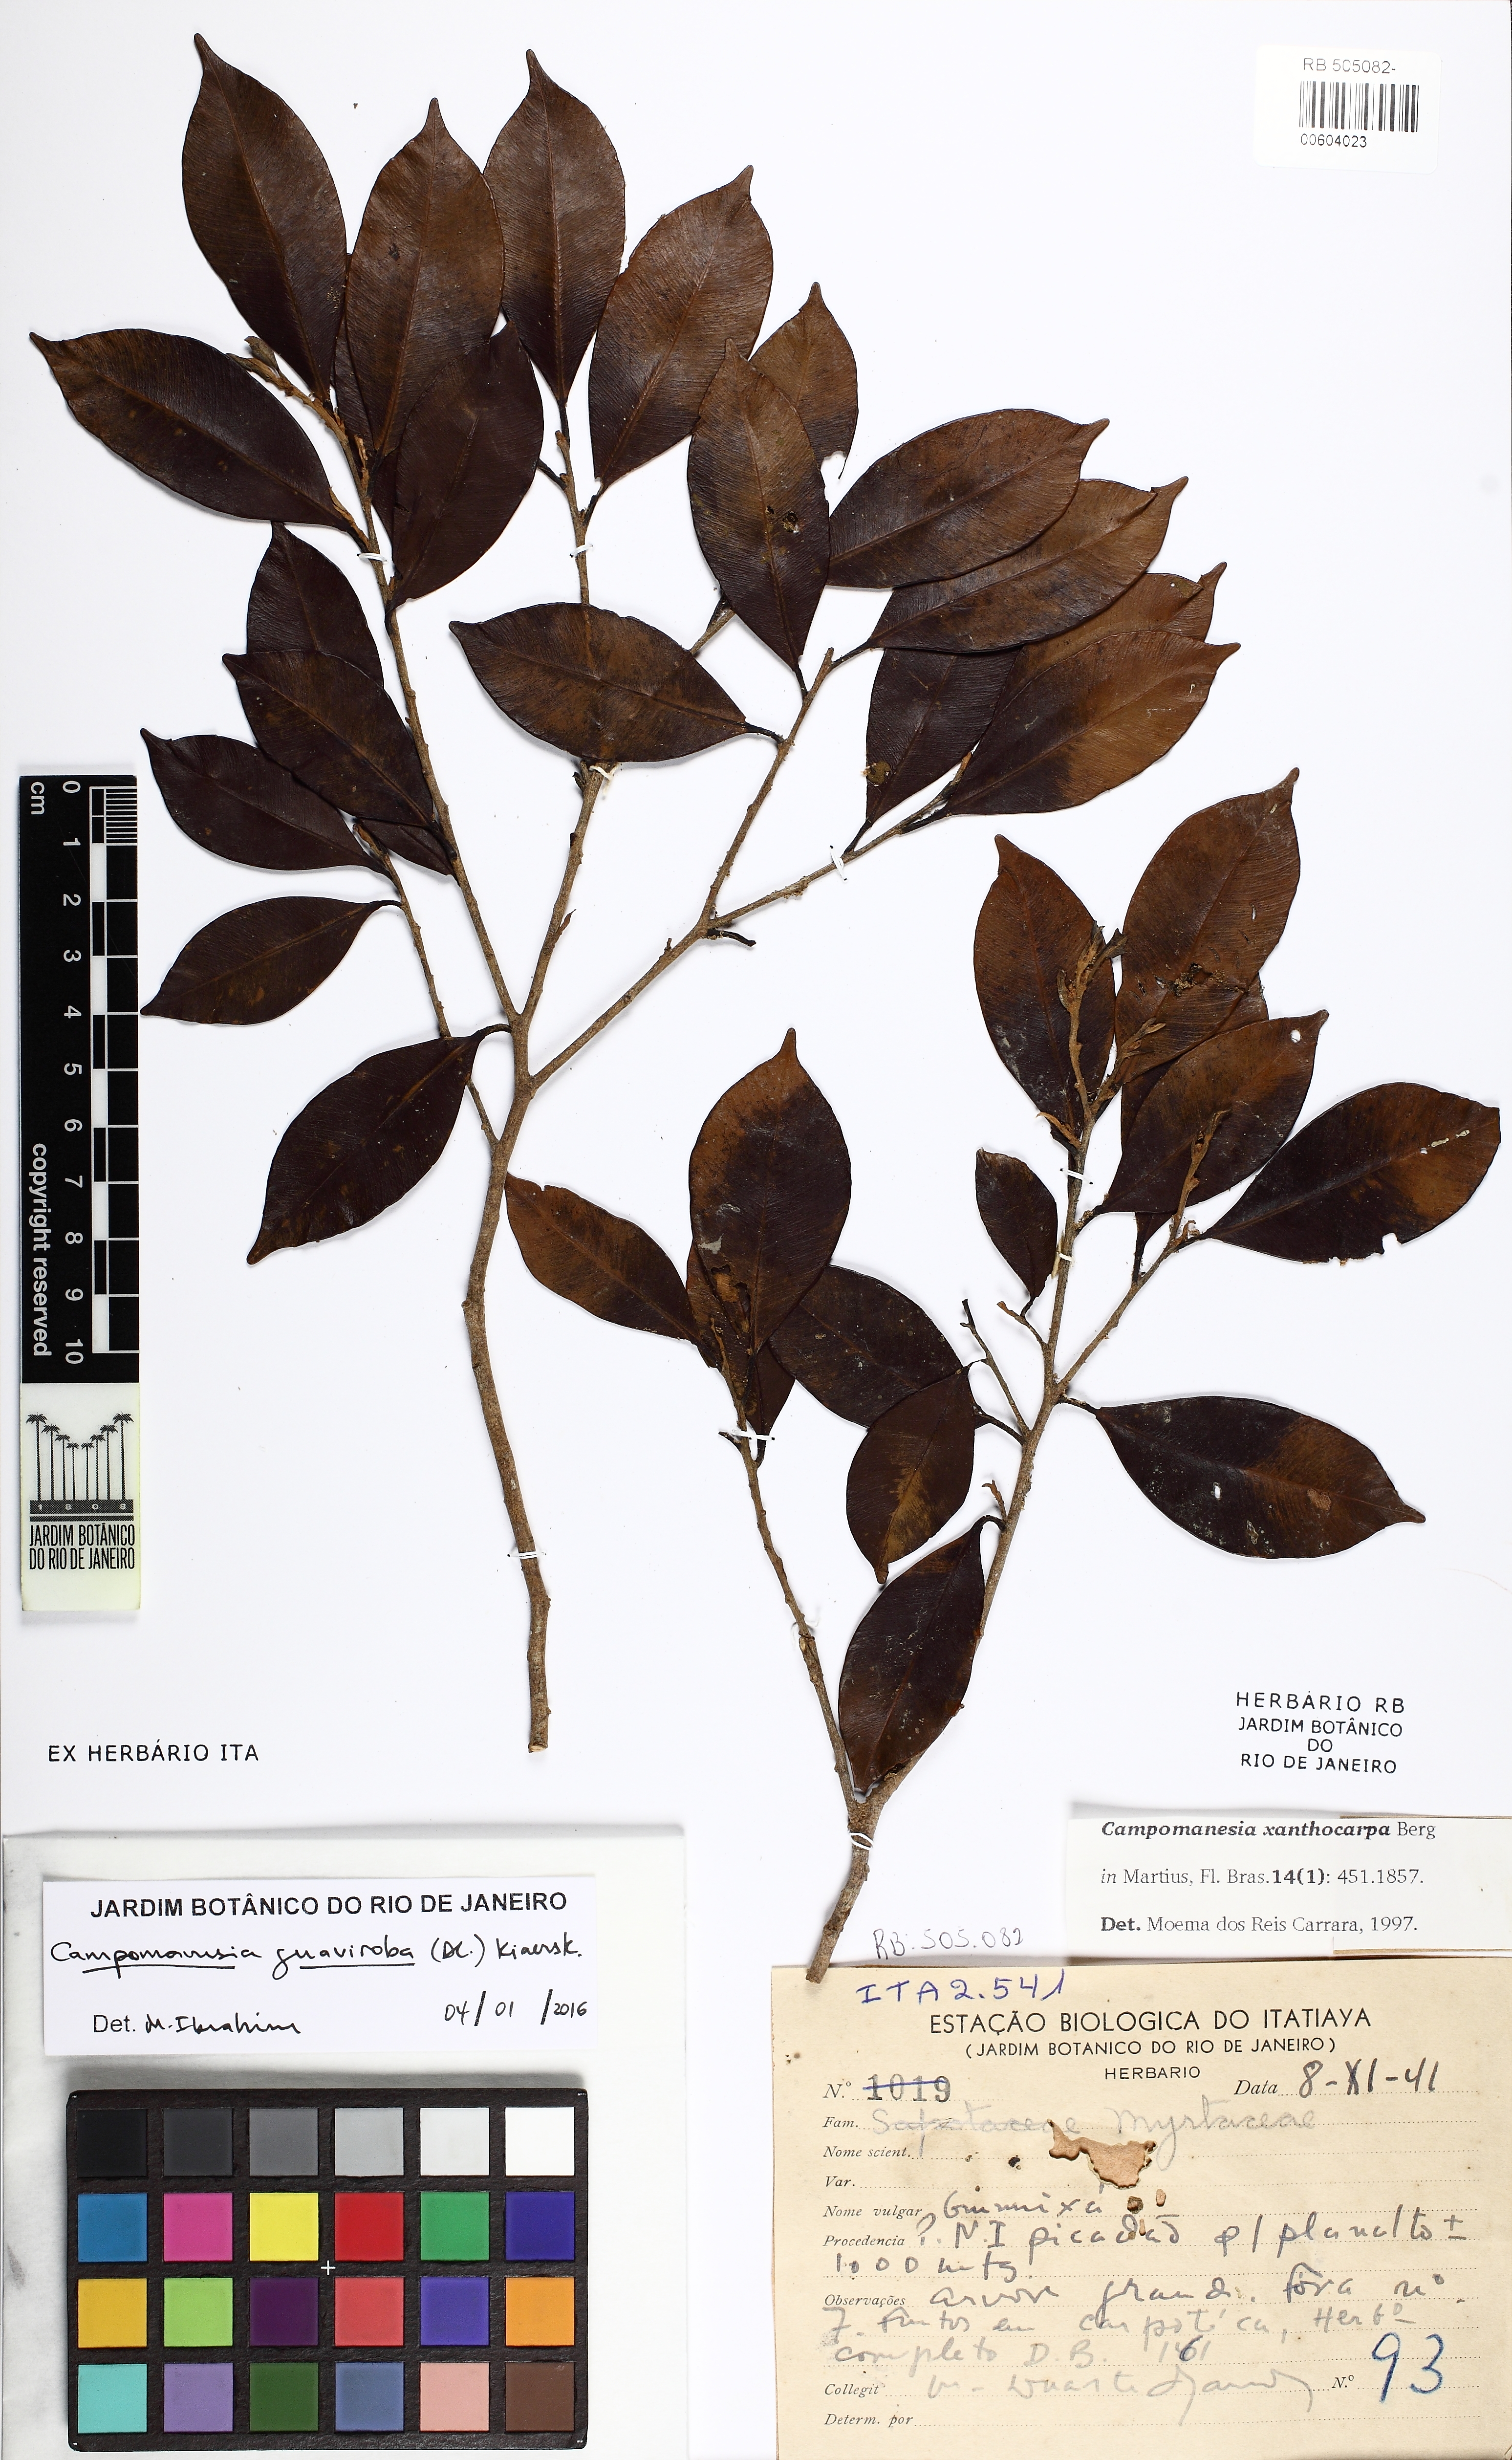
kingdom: Plantae
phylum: Tracheophyta
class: Magnoliopsida
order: Myrtales
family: Myrtaceae
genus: Campomanesia
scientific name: Campomanesia xanthocarpa
